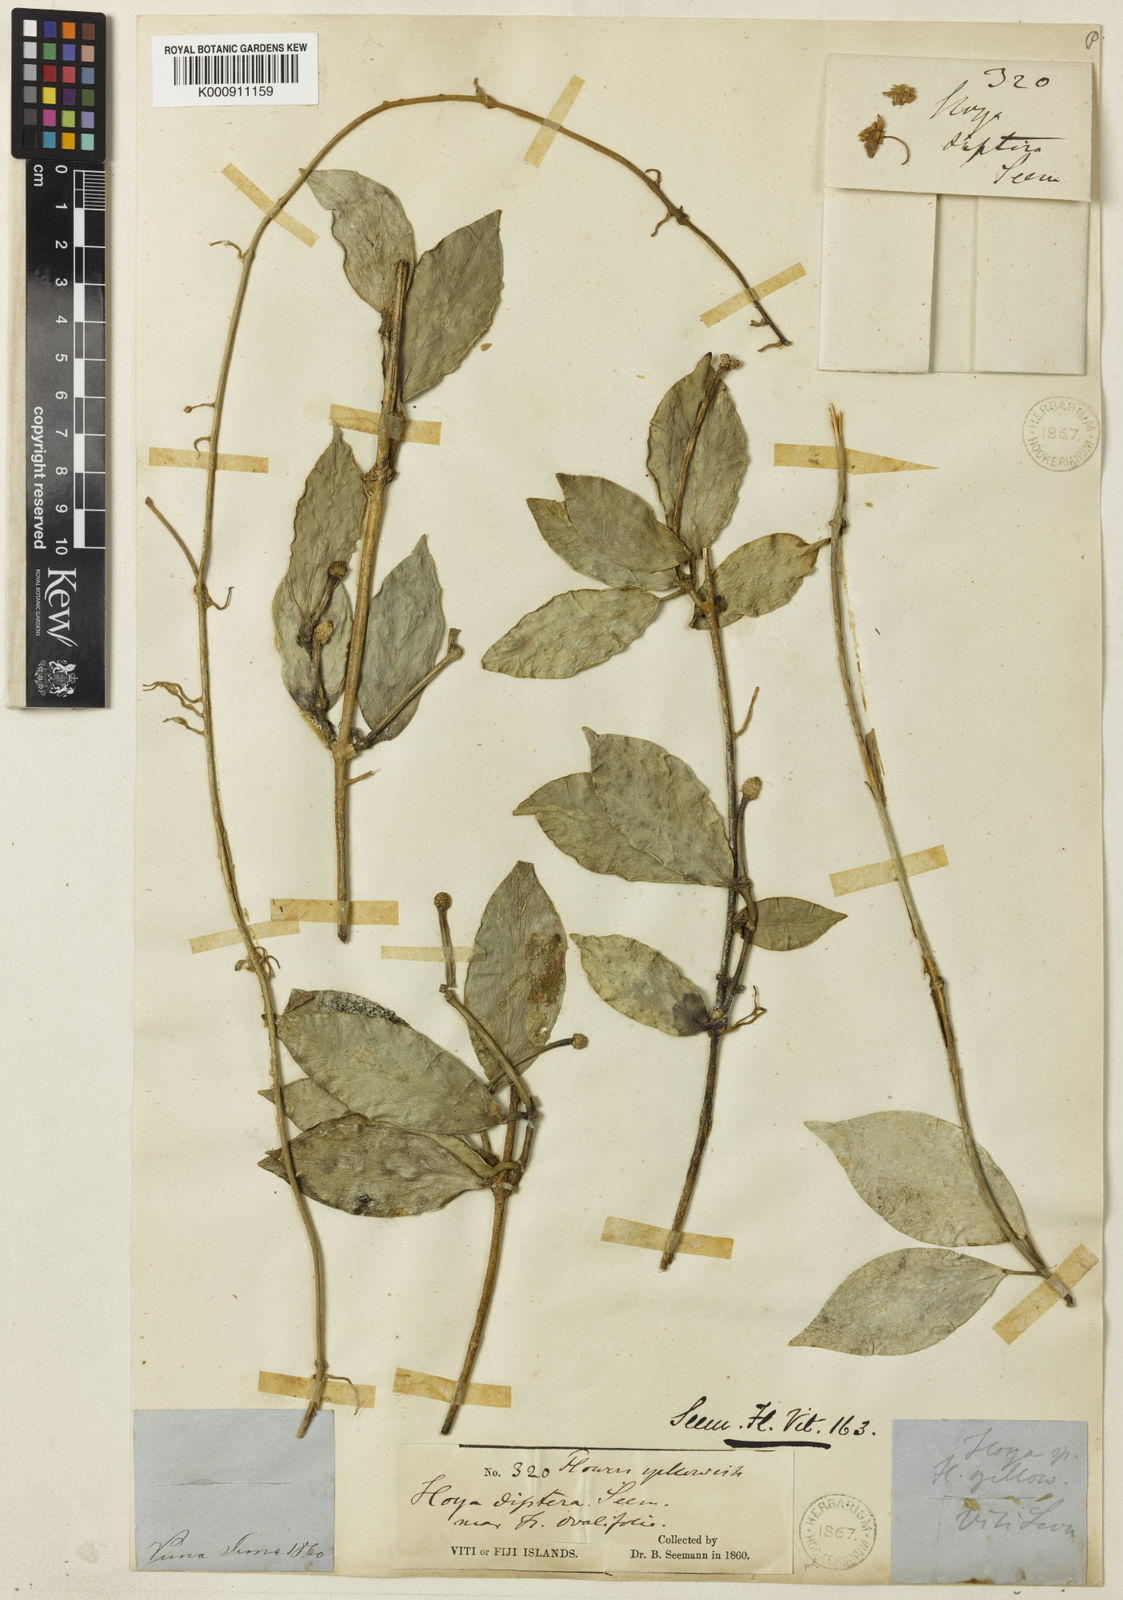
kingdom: Plantae
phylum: Tracheophyta
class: Magnoliopsida
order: Gentianales
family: Apocynaceae
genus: Hoya
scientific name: Hoya diptera
